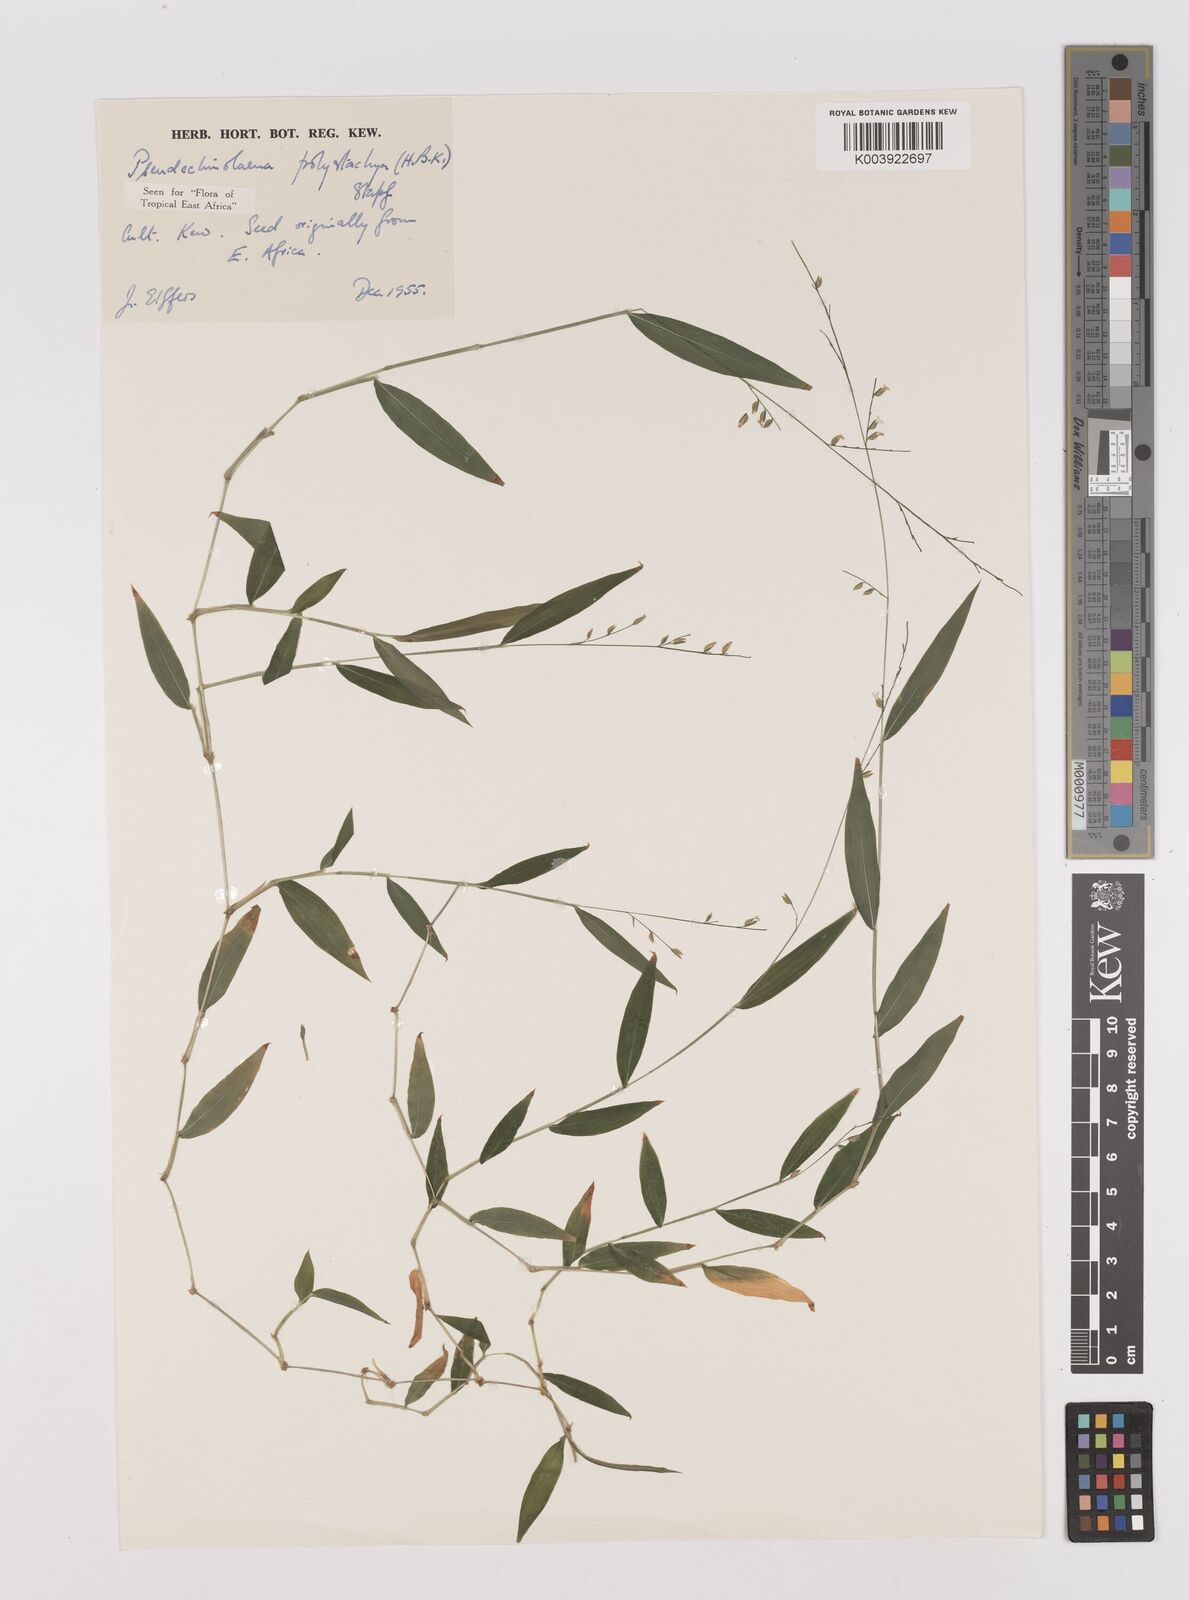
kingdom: Plantae
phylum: Tracheophyta
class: Liliopsida
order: Poales
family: Poaceae
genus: Pseudechinolaena
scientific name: Pseudechinolaena polystachya
